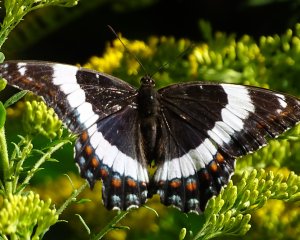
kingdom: Animalia
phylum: Arthropoda
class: Insecta
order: Lepidoptera
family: Nymphalidae
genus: Limenitis
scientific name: Limenitis arthemis
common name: Red-spotted Admiral
